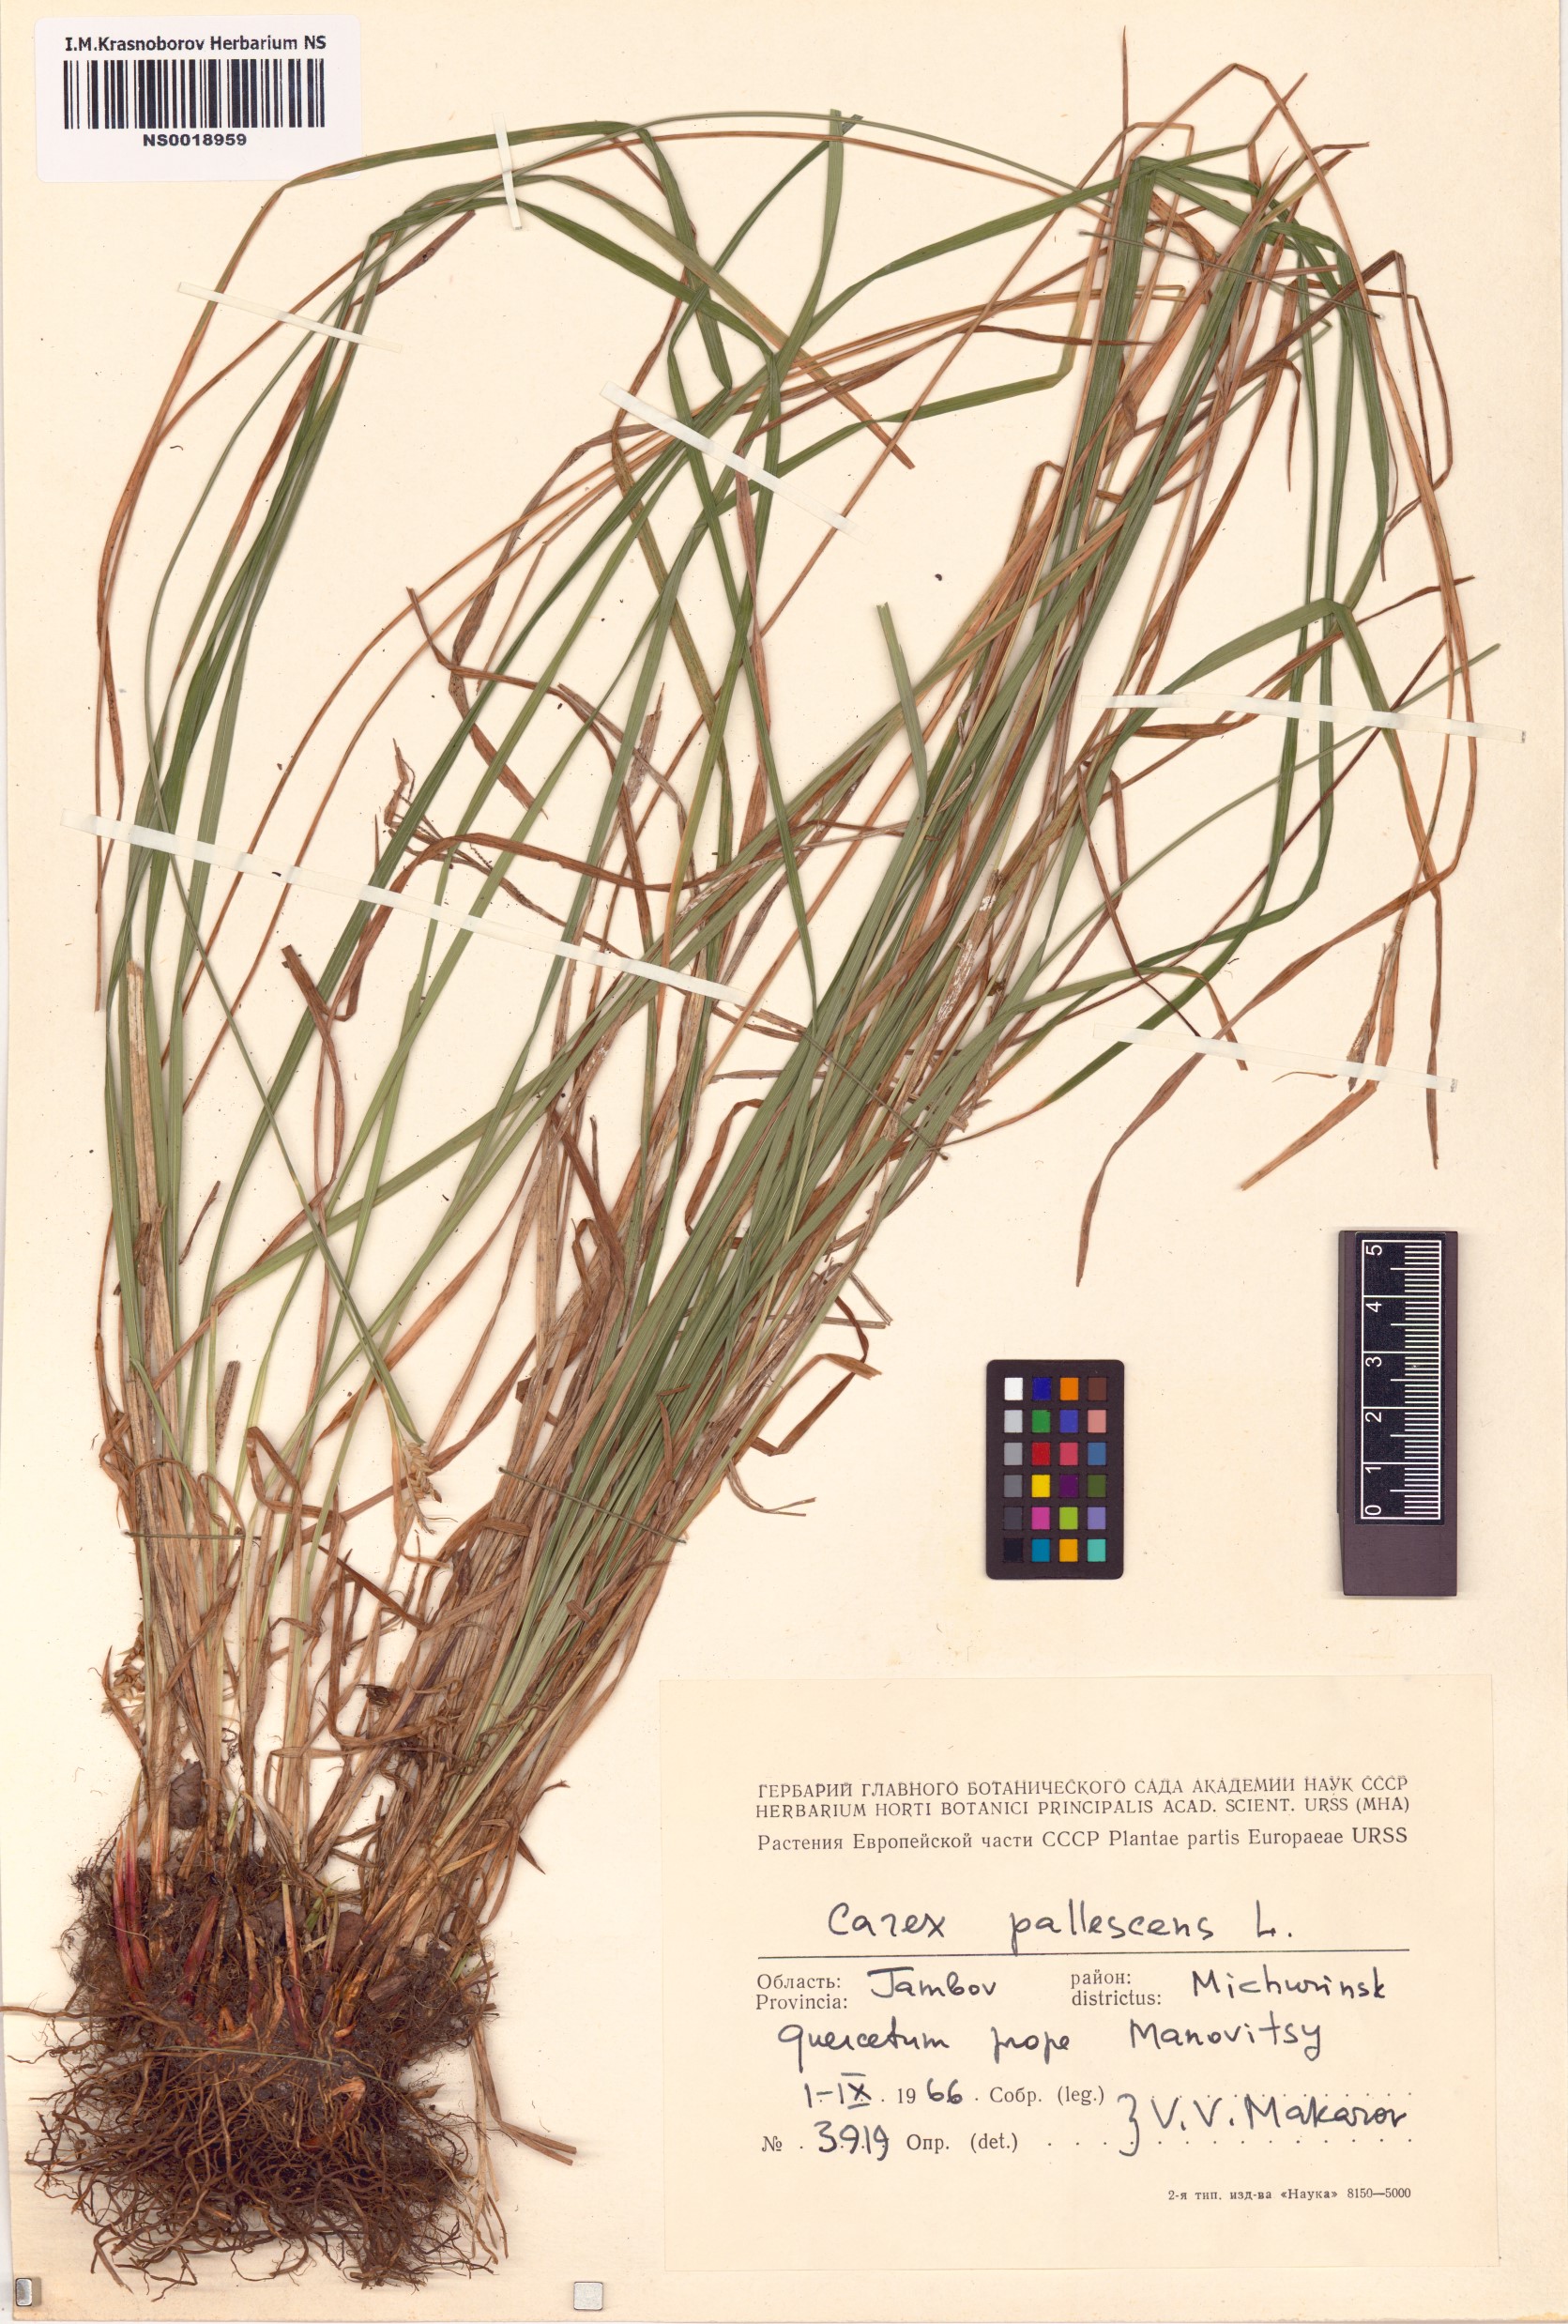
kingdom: Plantae
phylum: Tracheophyta
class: Liliopsida
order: Poales
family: Cyperaceae
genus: Carex
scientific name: Carex pallescens
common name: Pale sedge
